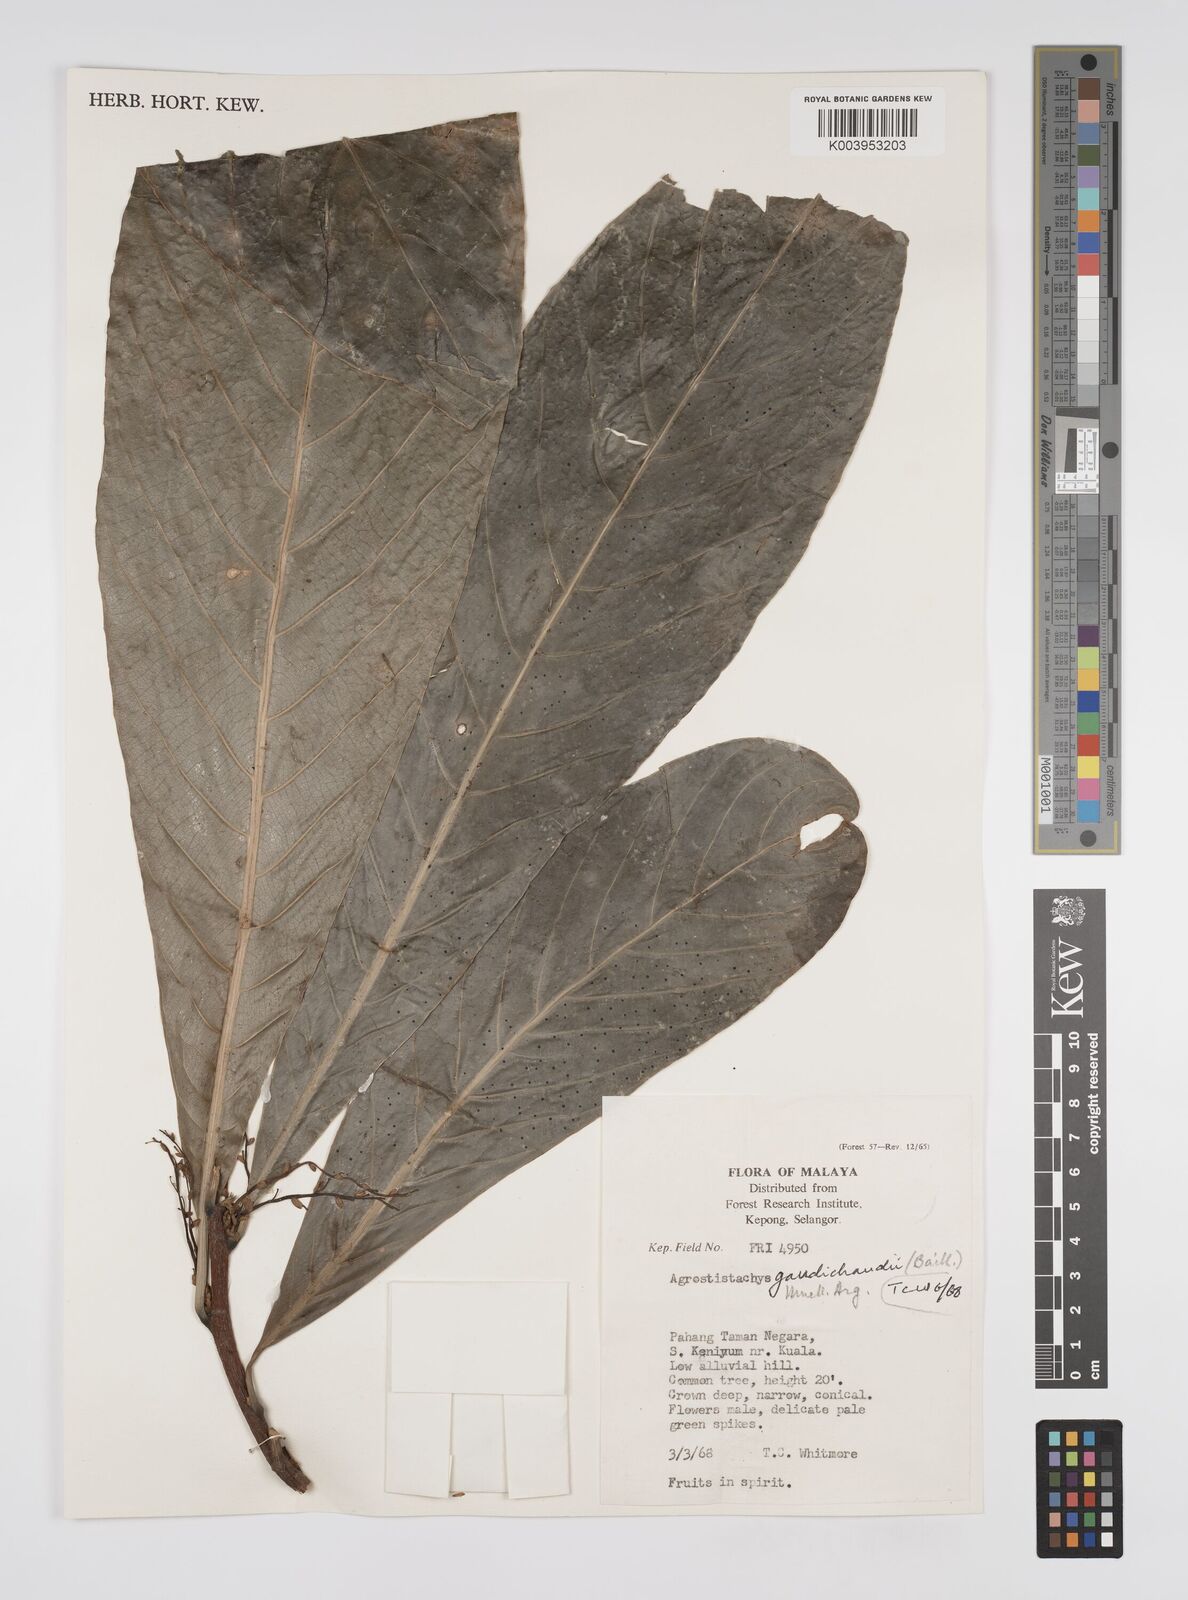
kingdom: Plantae
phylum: Tracheophyta
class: Magnoliopsida
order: Malpighiales
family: Euphorbiaceae
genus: Agrostistachys
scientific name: Agrostistachys gaudichaudii
